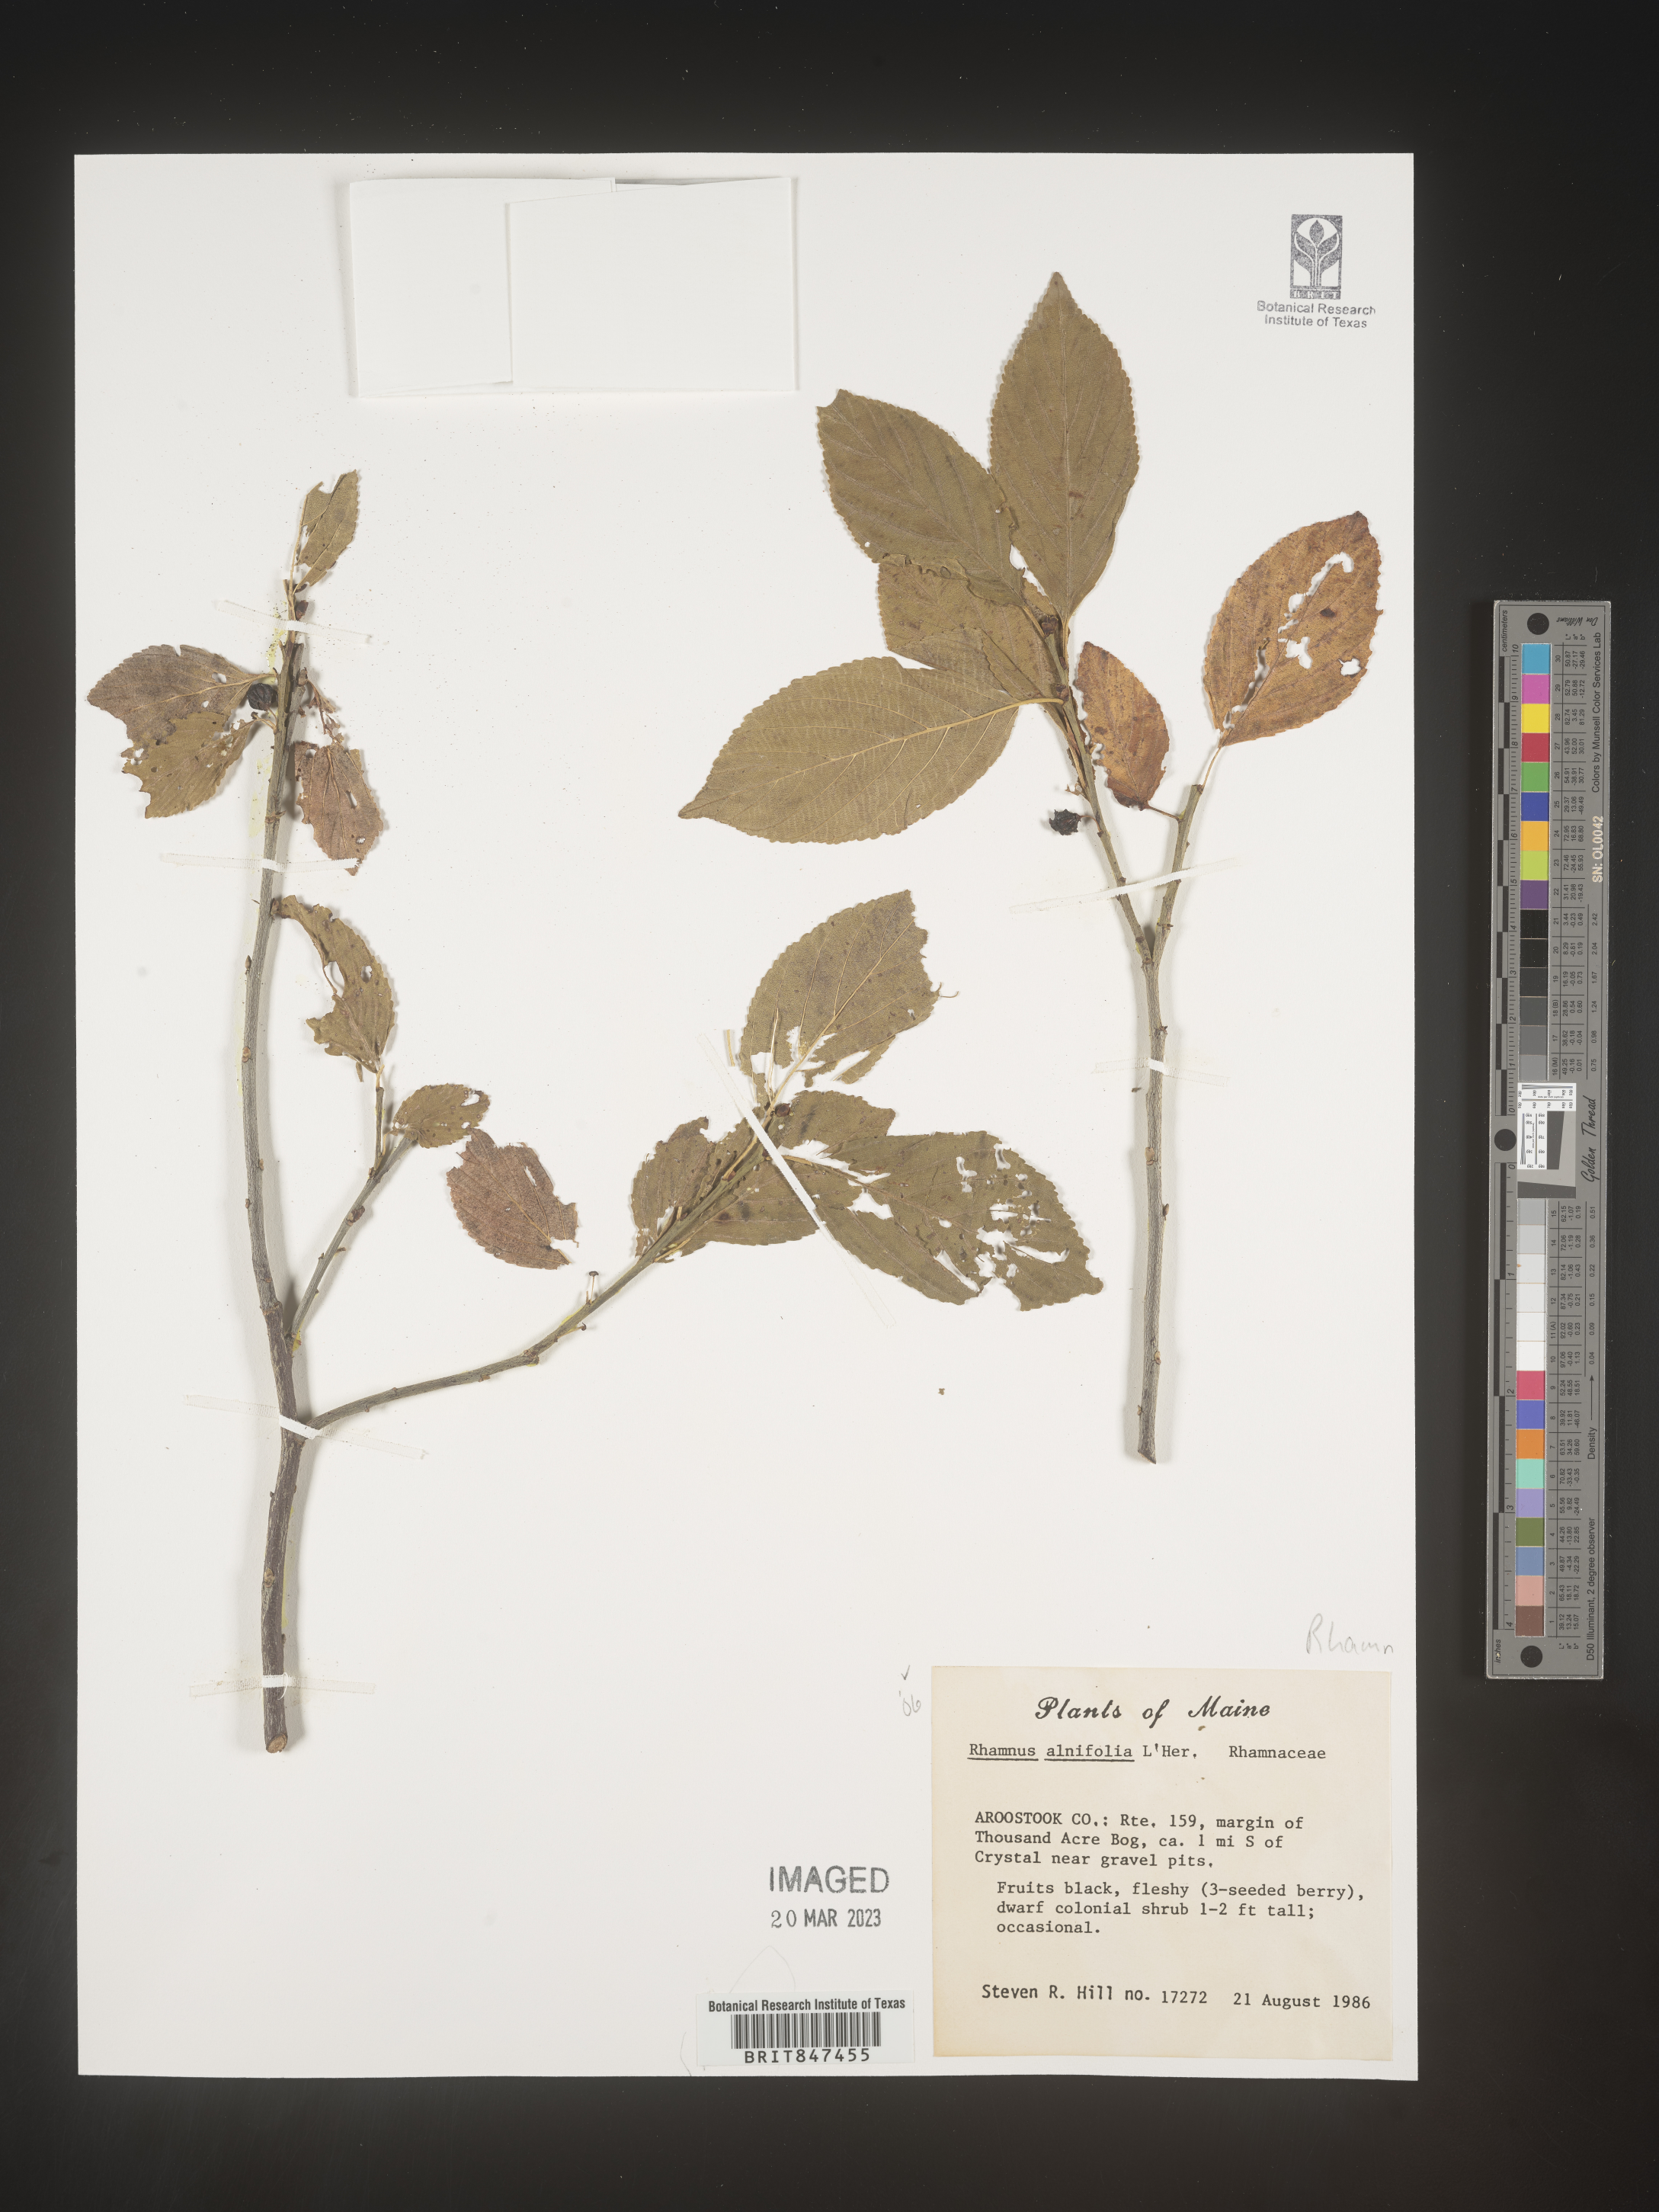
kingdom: Plantae
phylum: Tracheophyta
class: Magnoliopsida
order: Rosales
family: Rhamnaceae
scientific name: Rhamnaceae
